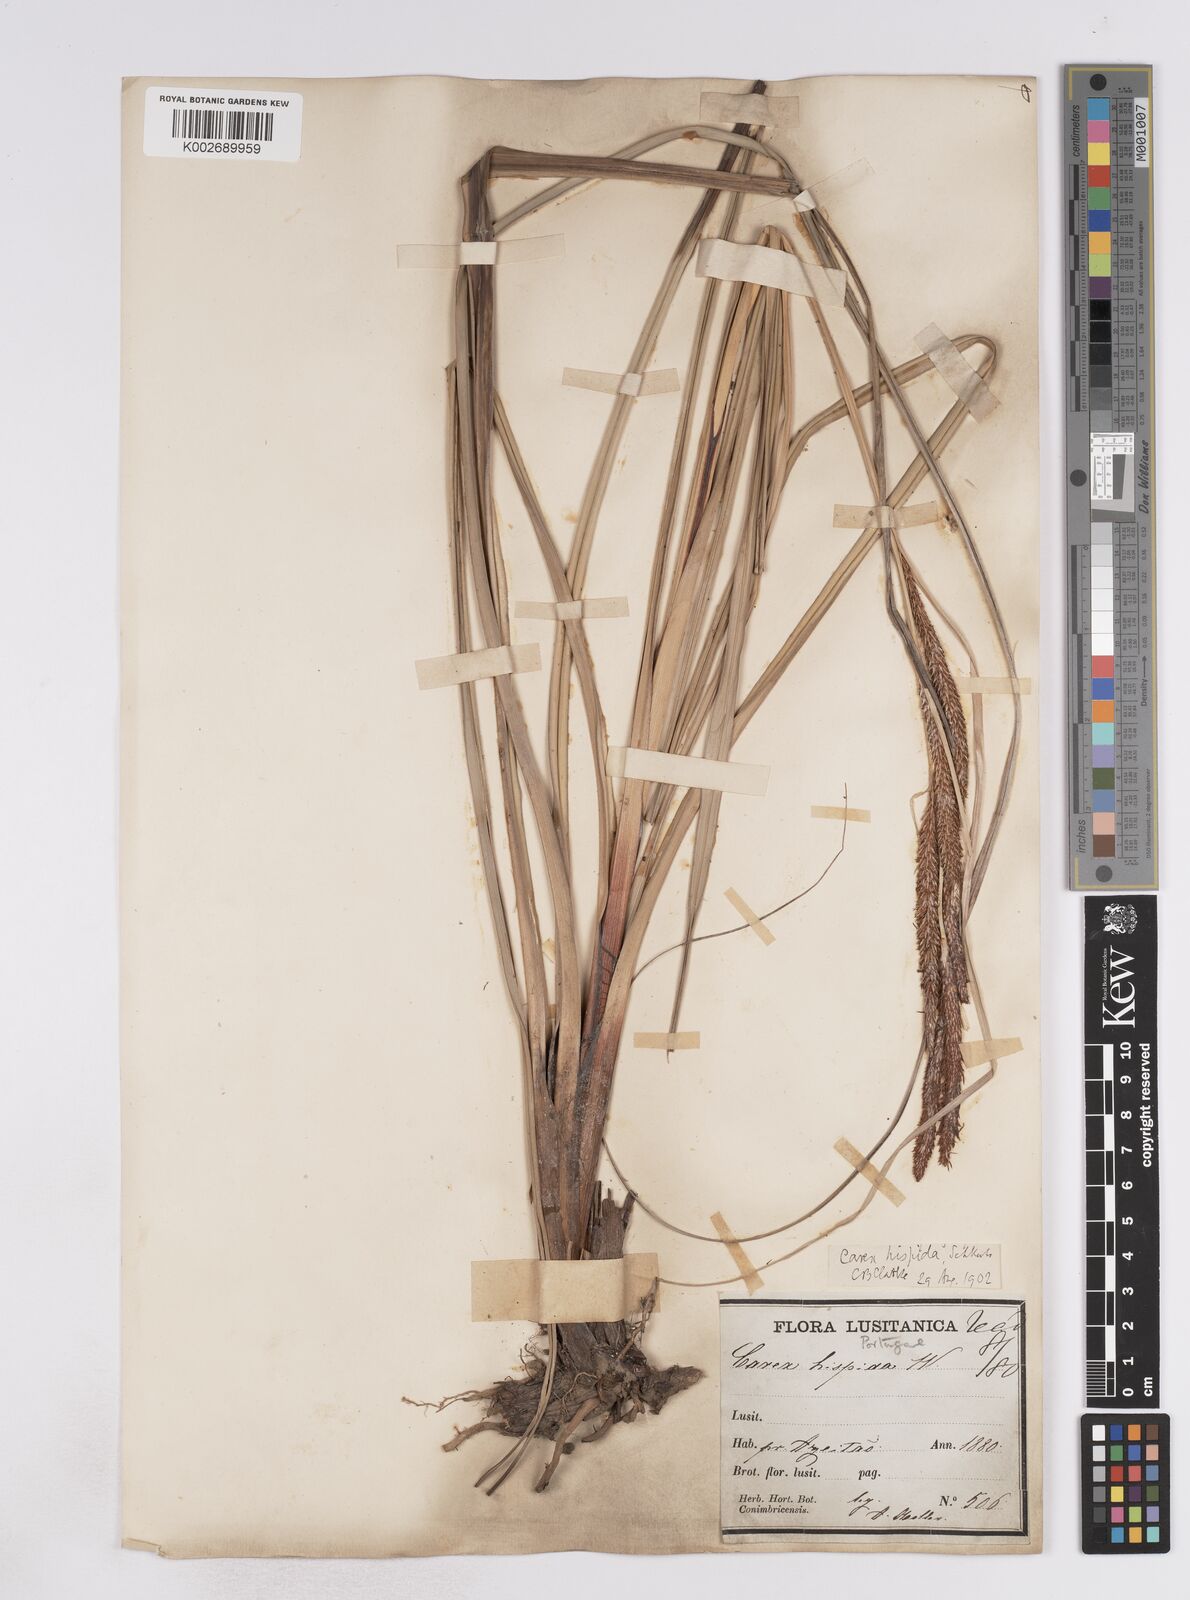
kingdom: Plantae
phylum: Tracheophyta
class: Liliopsida
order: Poales
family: Cyperaceae
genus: Carex
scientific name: Carex hispida
